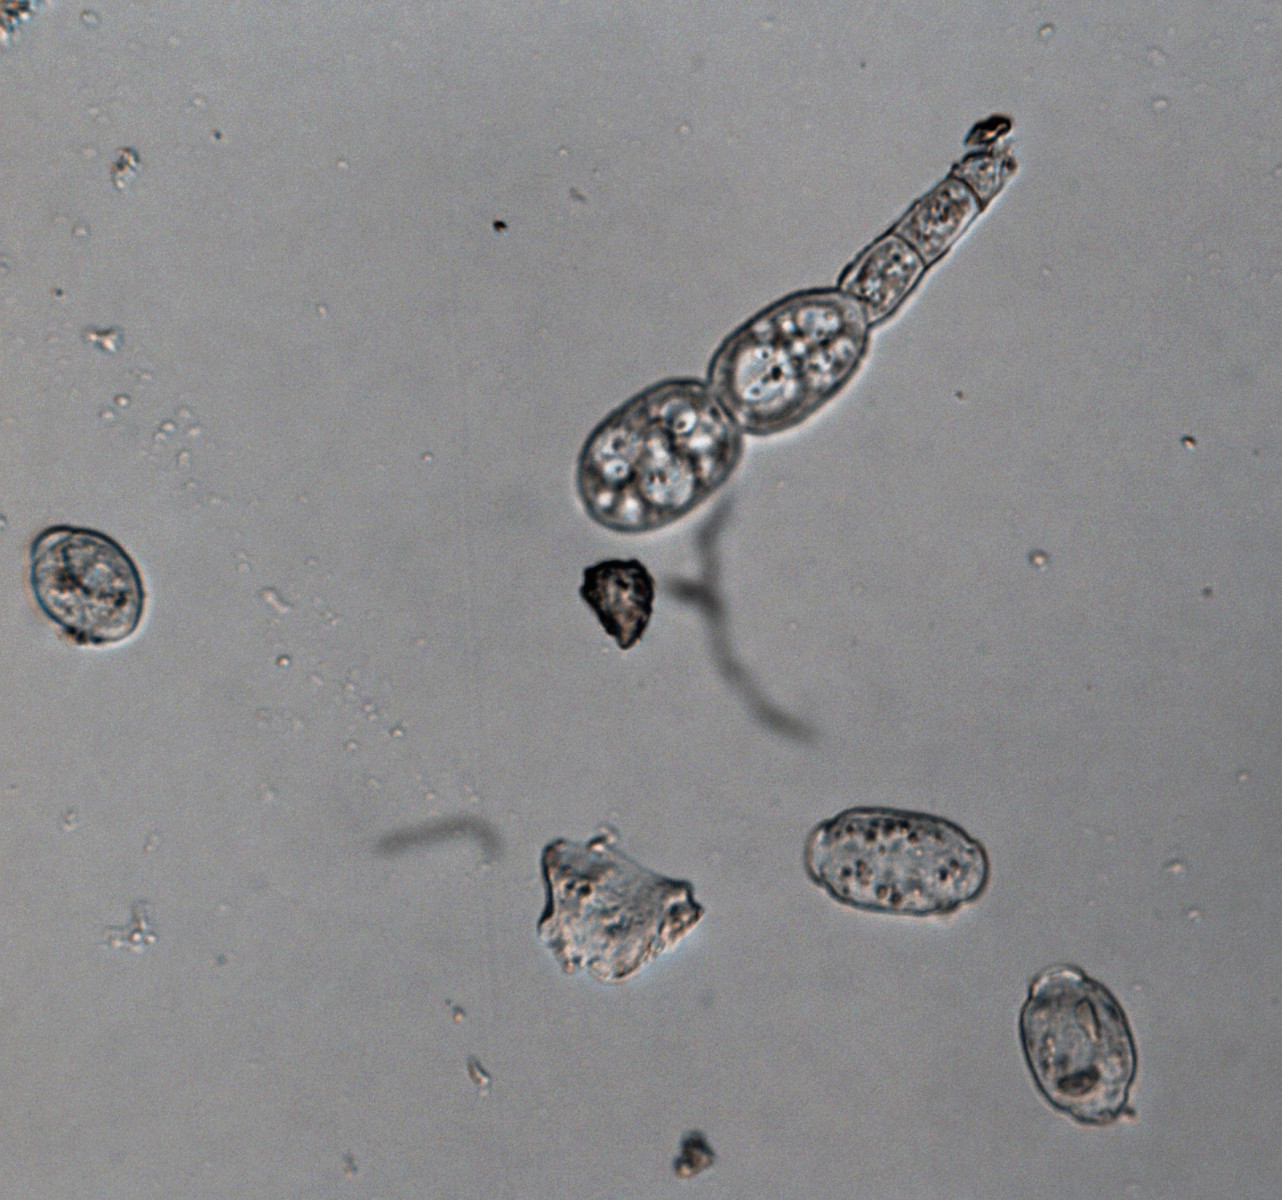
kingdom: Fungi
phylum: Ascomycota
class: Leotiomycetes
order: Helotiales
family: Erysiphaceae
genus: Sawadaea
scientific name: Sawadaea bicornis
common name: Maple mildew
